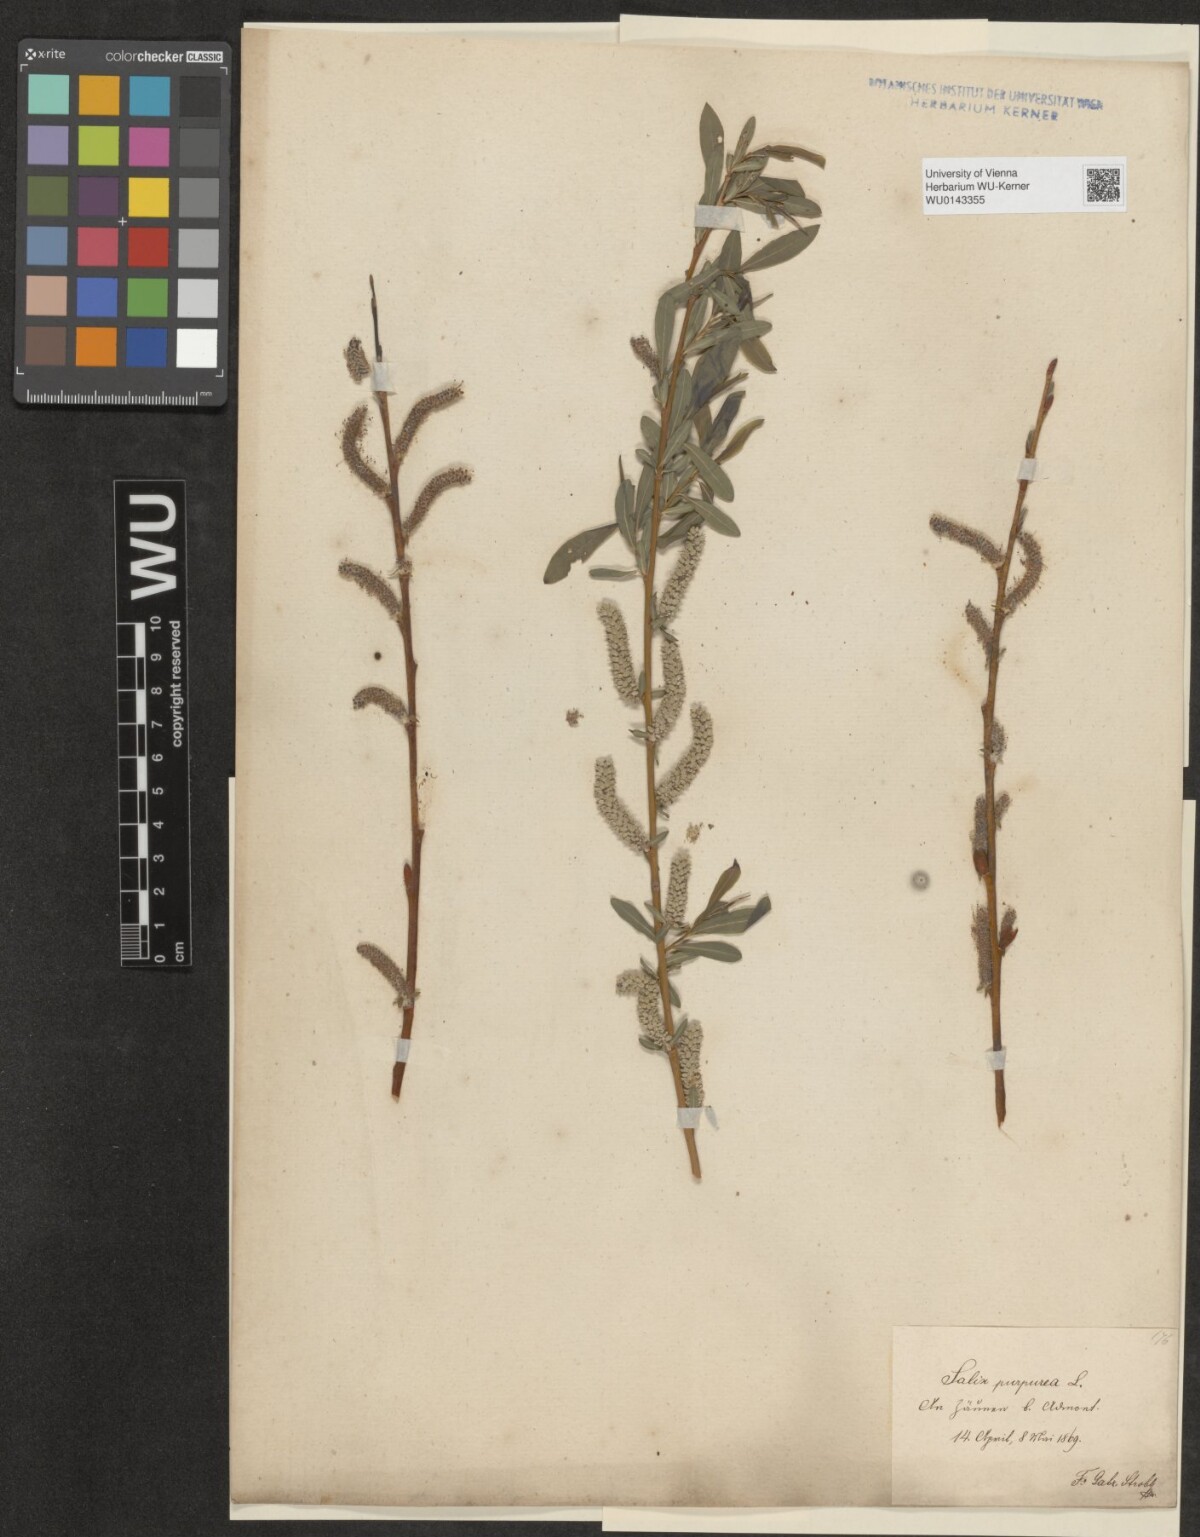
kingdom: Plantae
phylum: Tracheophyta
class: Magnoliopsida
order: Malpighiales
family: Salicaceae
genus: Salix
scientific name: Salix purpurea
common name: Purple willow
